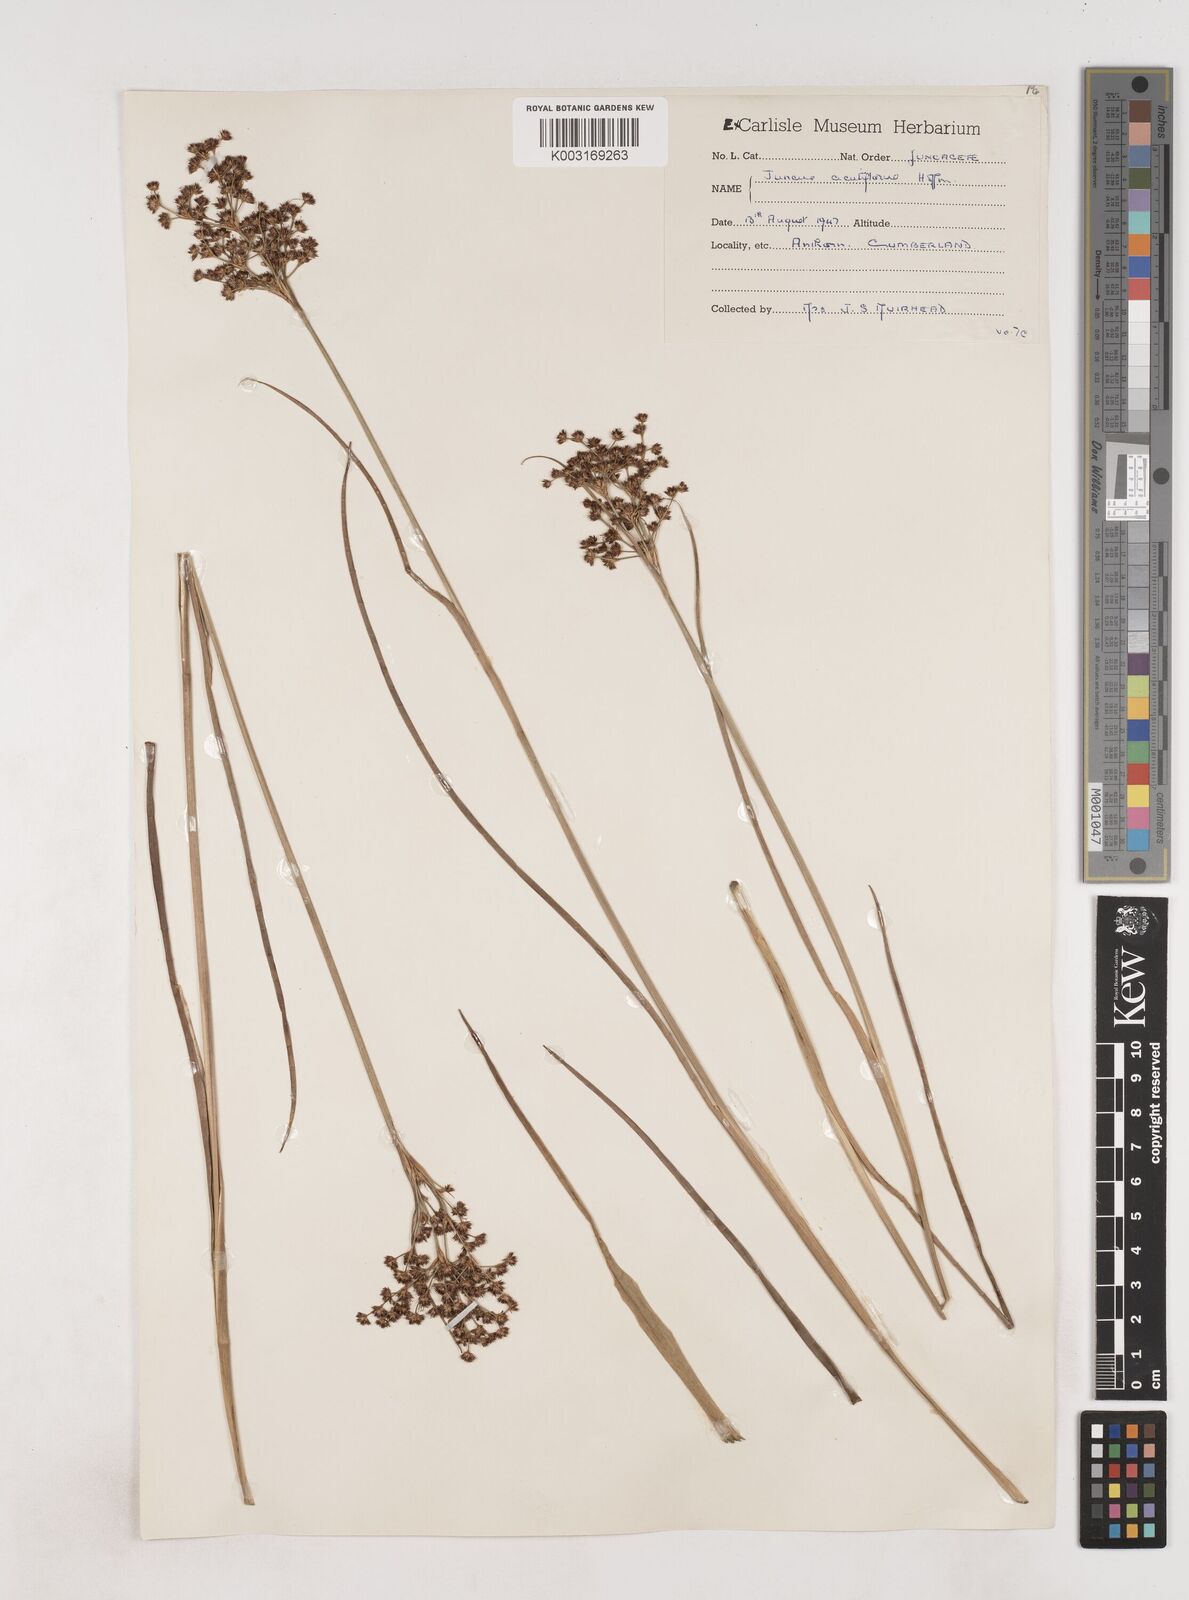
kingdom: Plantae
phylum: Tracheophyta
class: Liliopsida
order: Poales
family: Juncaceae
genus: Juncus
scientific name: Juncus acutiflorus
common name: Sharp-flowered rush
